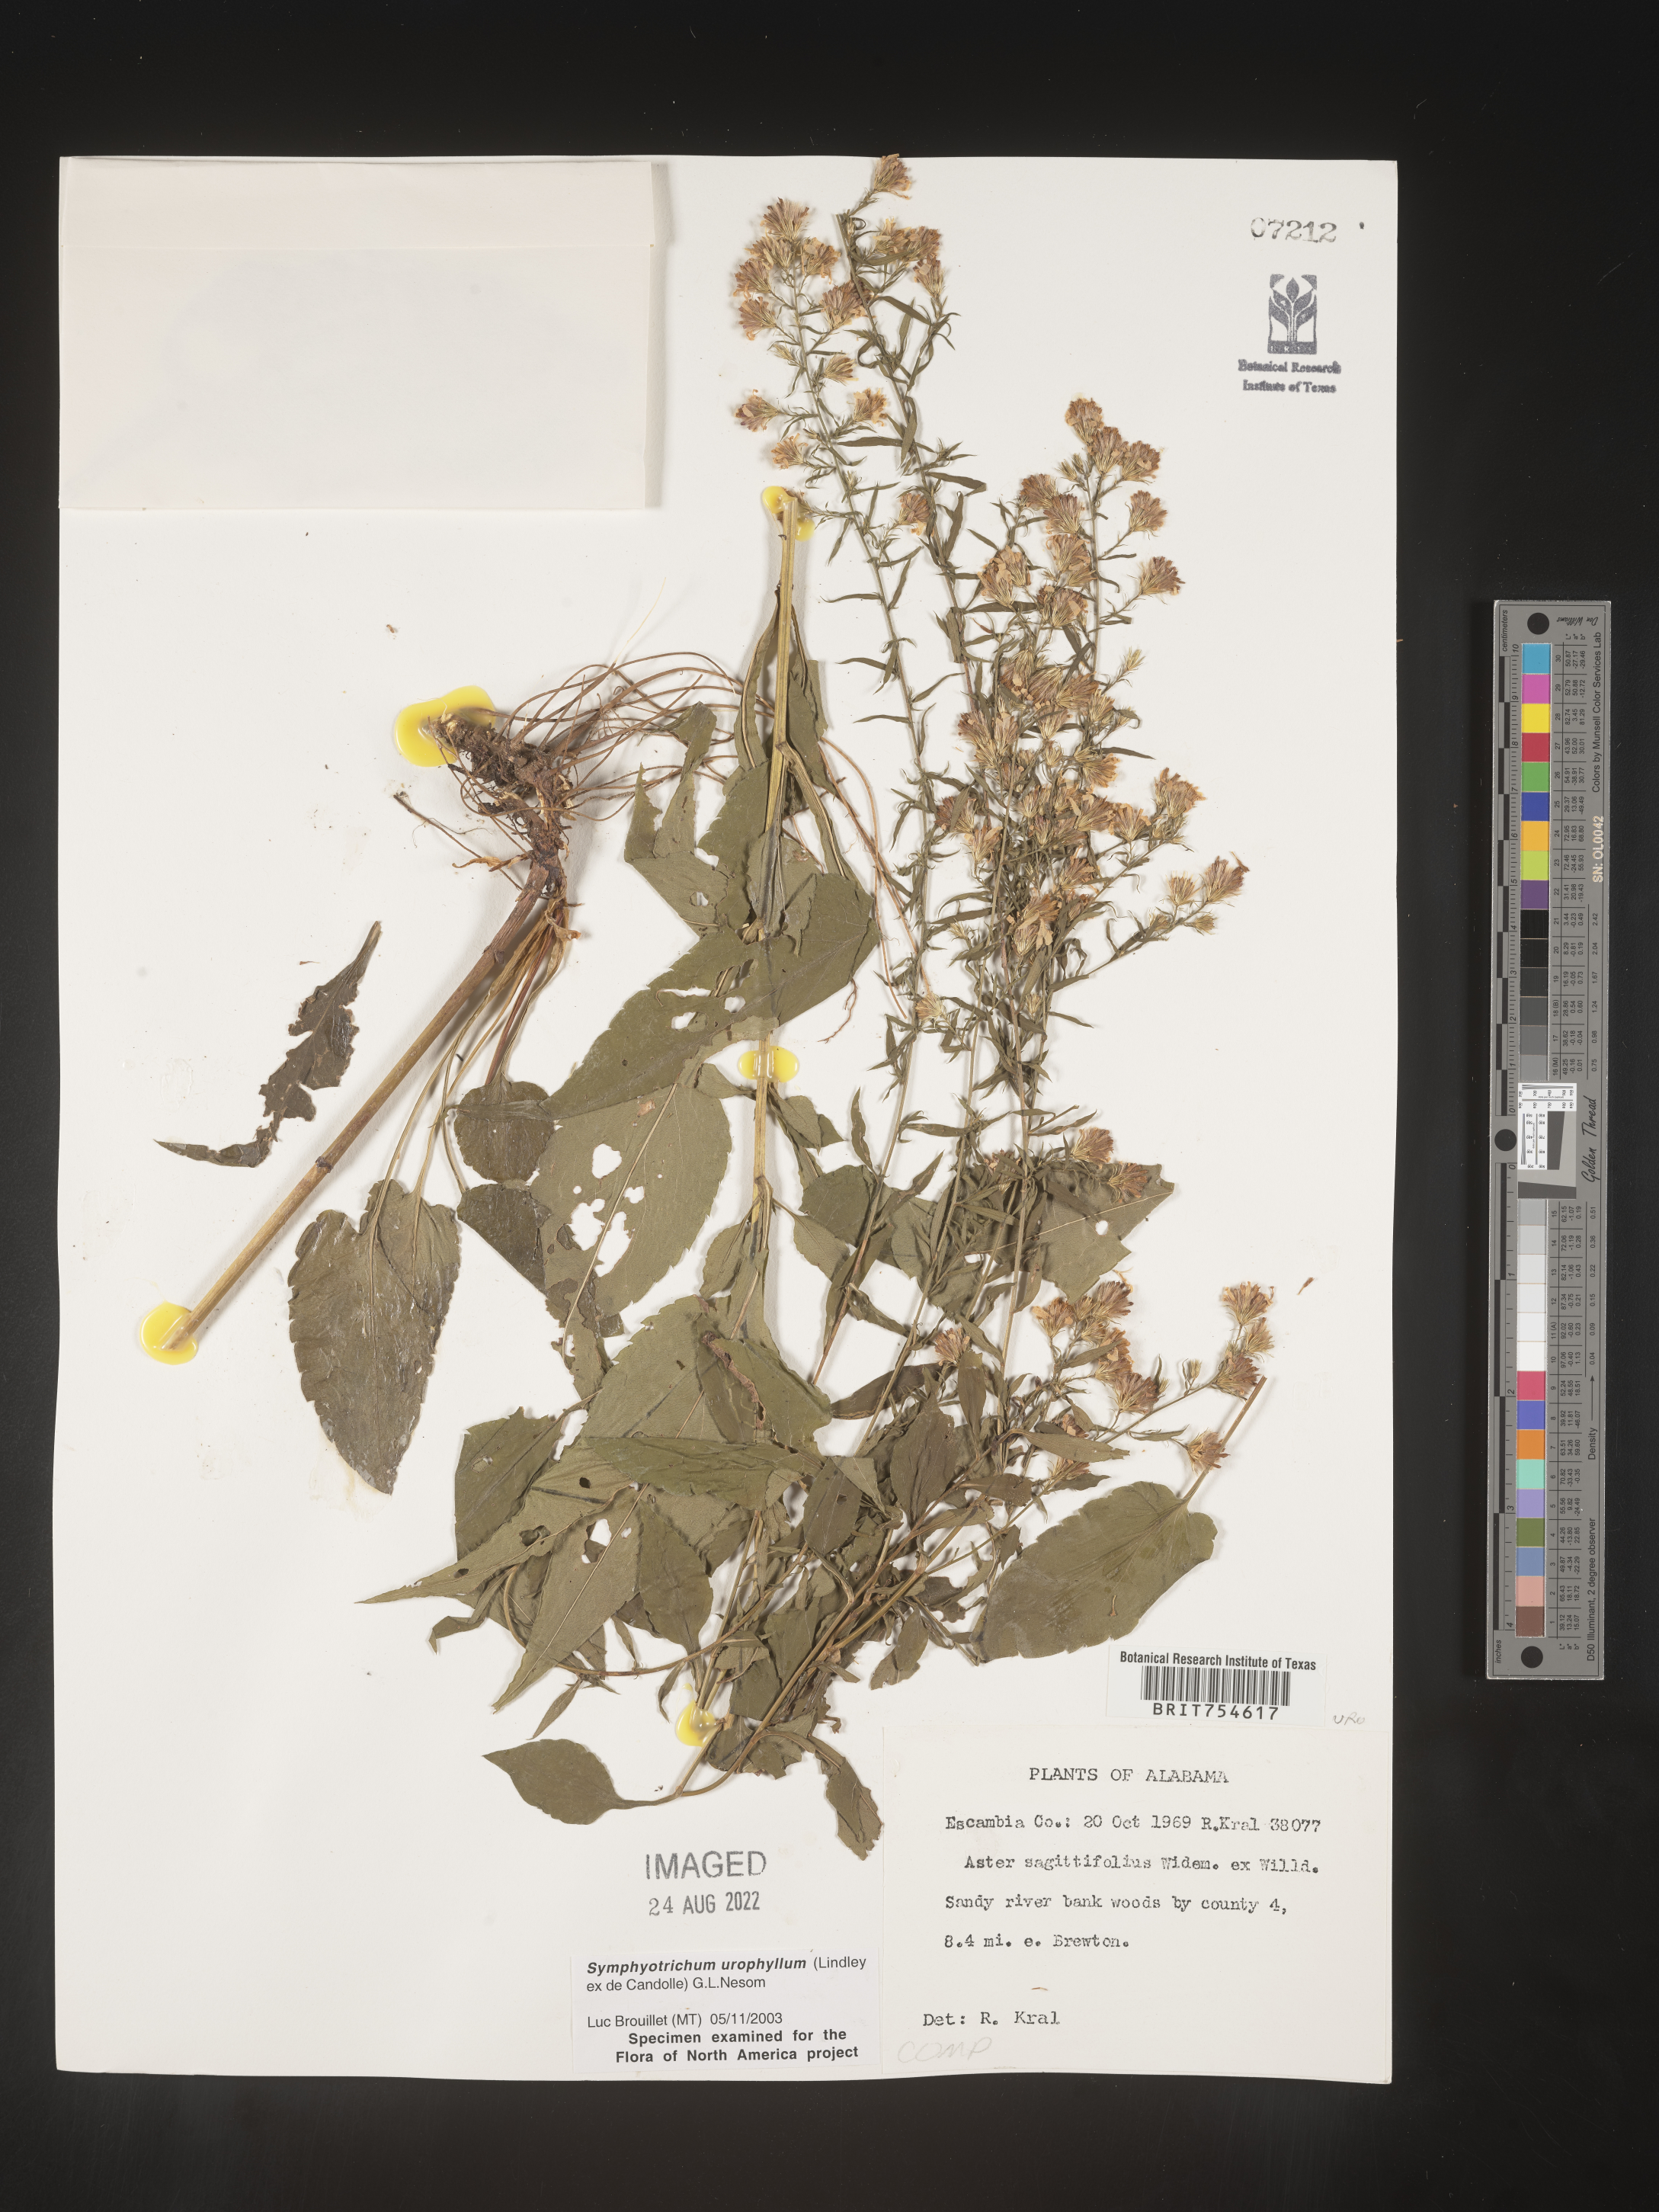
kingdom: Plantae
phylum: Tracheophyta
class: Magnoliopsida
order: Asterales
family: Asteraceae
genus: Symphyotrichum
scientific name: Symphyotrichum urophyllum
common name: Arrow-leaved aster
